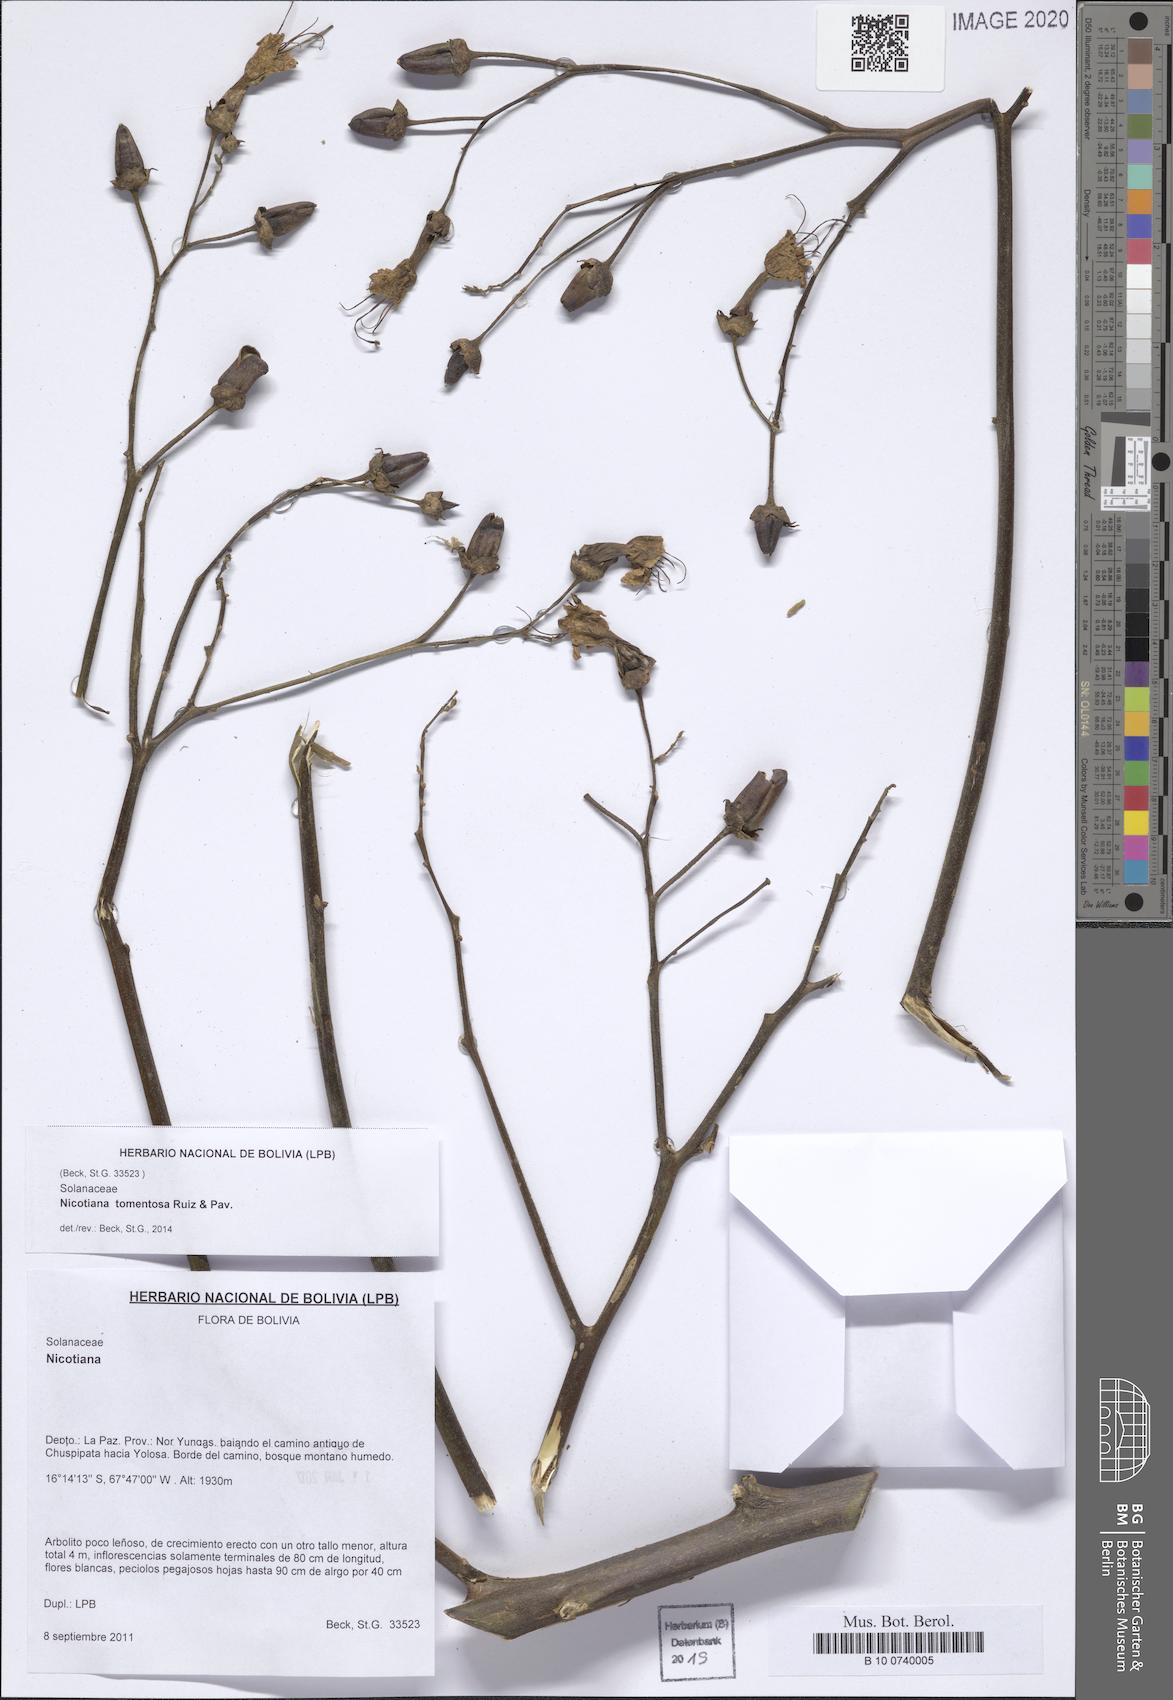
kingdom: Plantae
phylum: Tracheophyta
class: Magnoliopsida
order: Solanales
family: Solanaceae
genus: Nicotiana
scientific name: Nicotiana tomentosa
